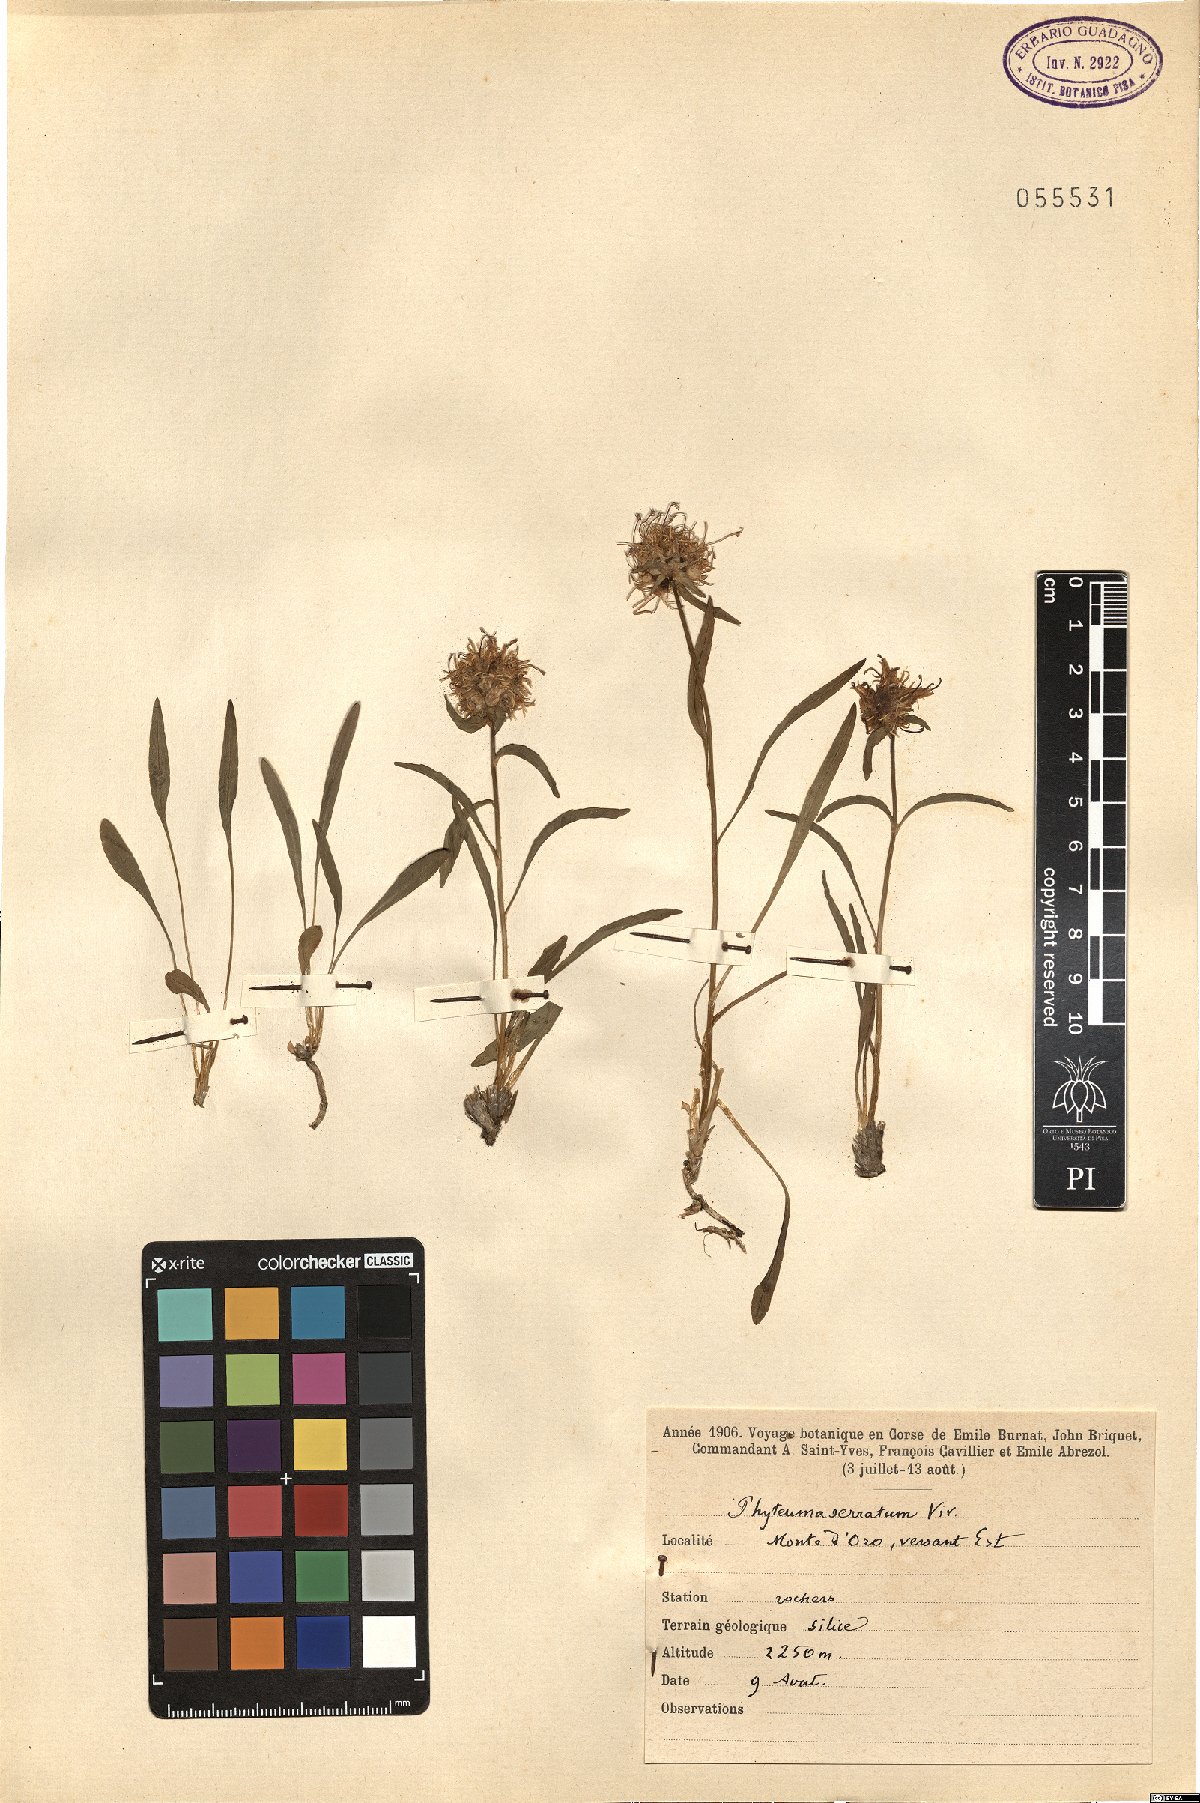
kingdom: Plantae
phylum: Tracheophyta
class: Magnoliopsida
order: Asterales
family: Campanulaceae
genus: Phyteuma
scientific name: Phyteuma serratum
